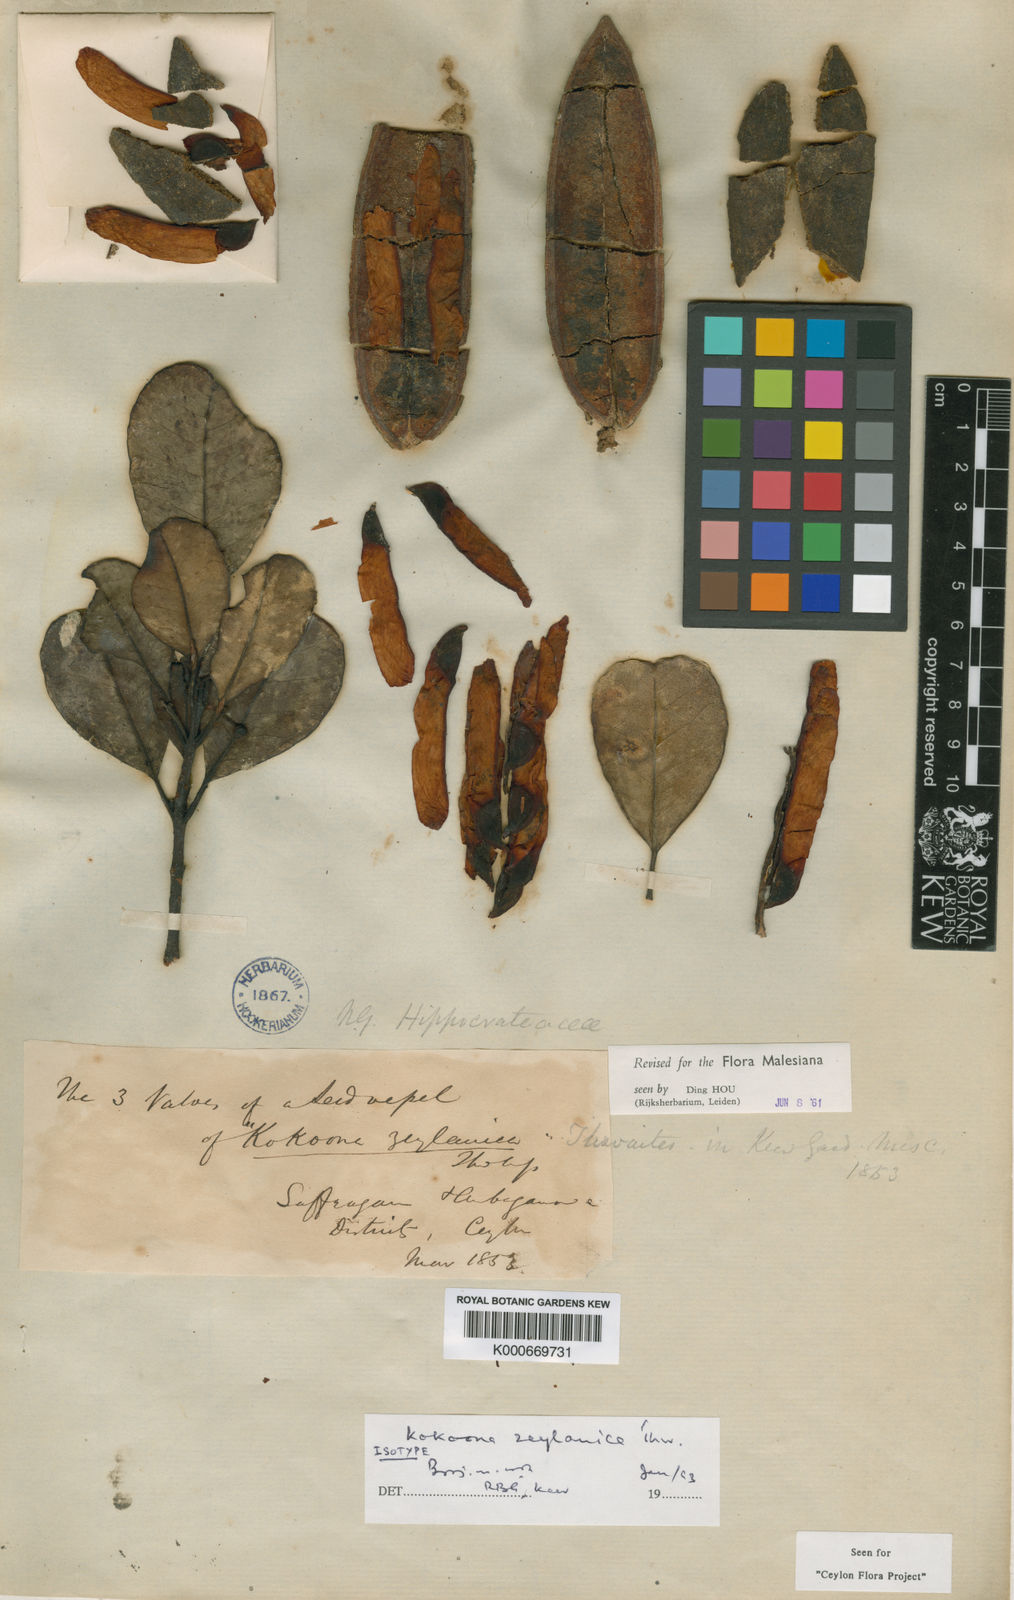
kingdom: Plantae
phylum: Tracheophyta
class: Magnoliopsida
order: Celastrales
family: Celastraceae
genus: Kokoona
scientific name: Kokoona zeylanica
